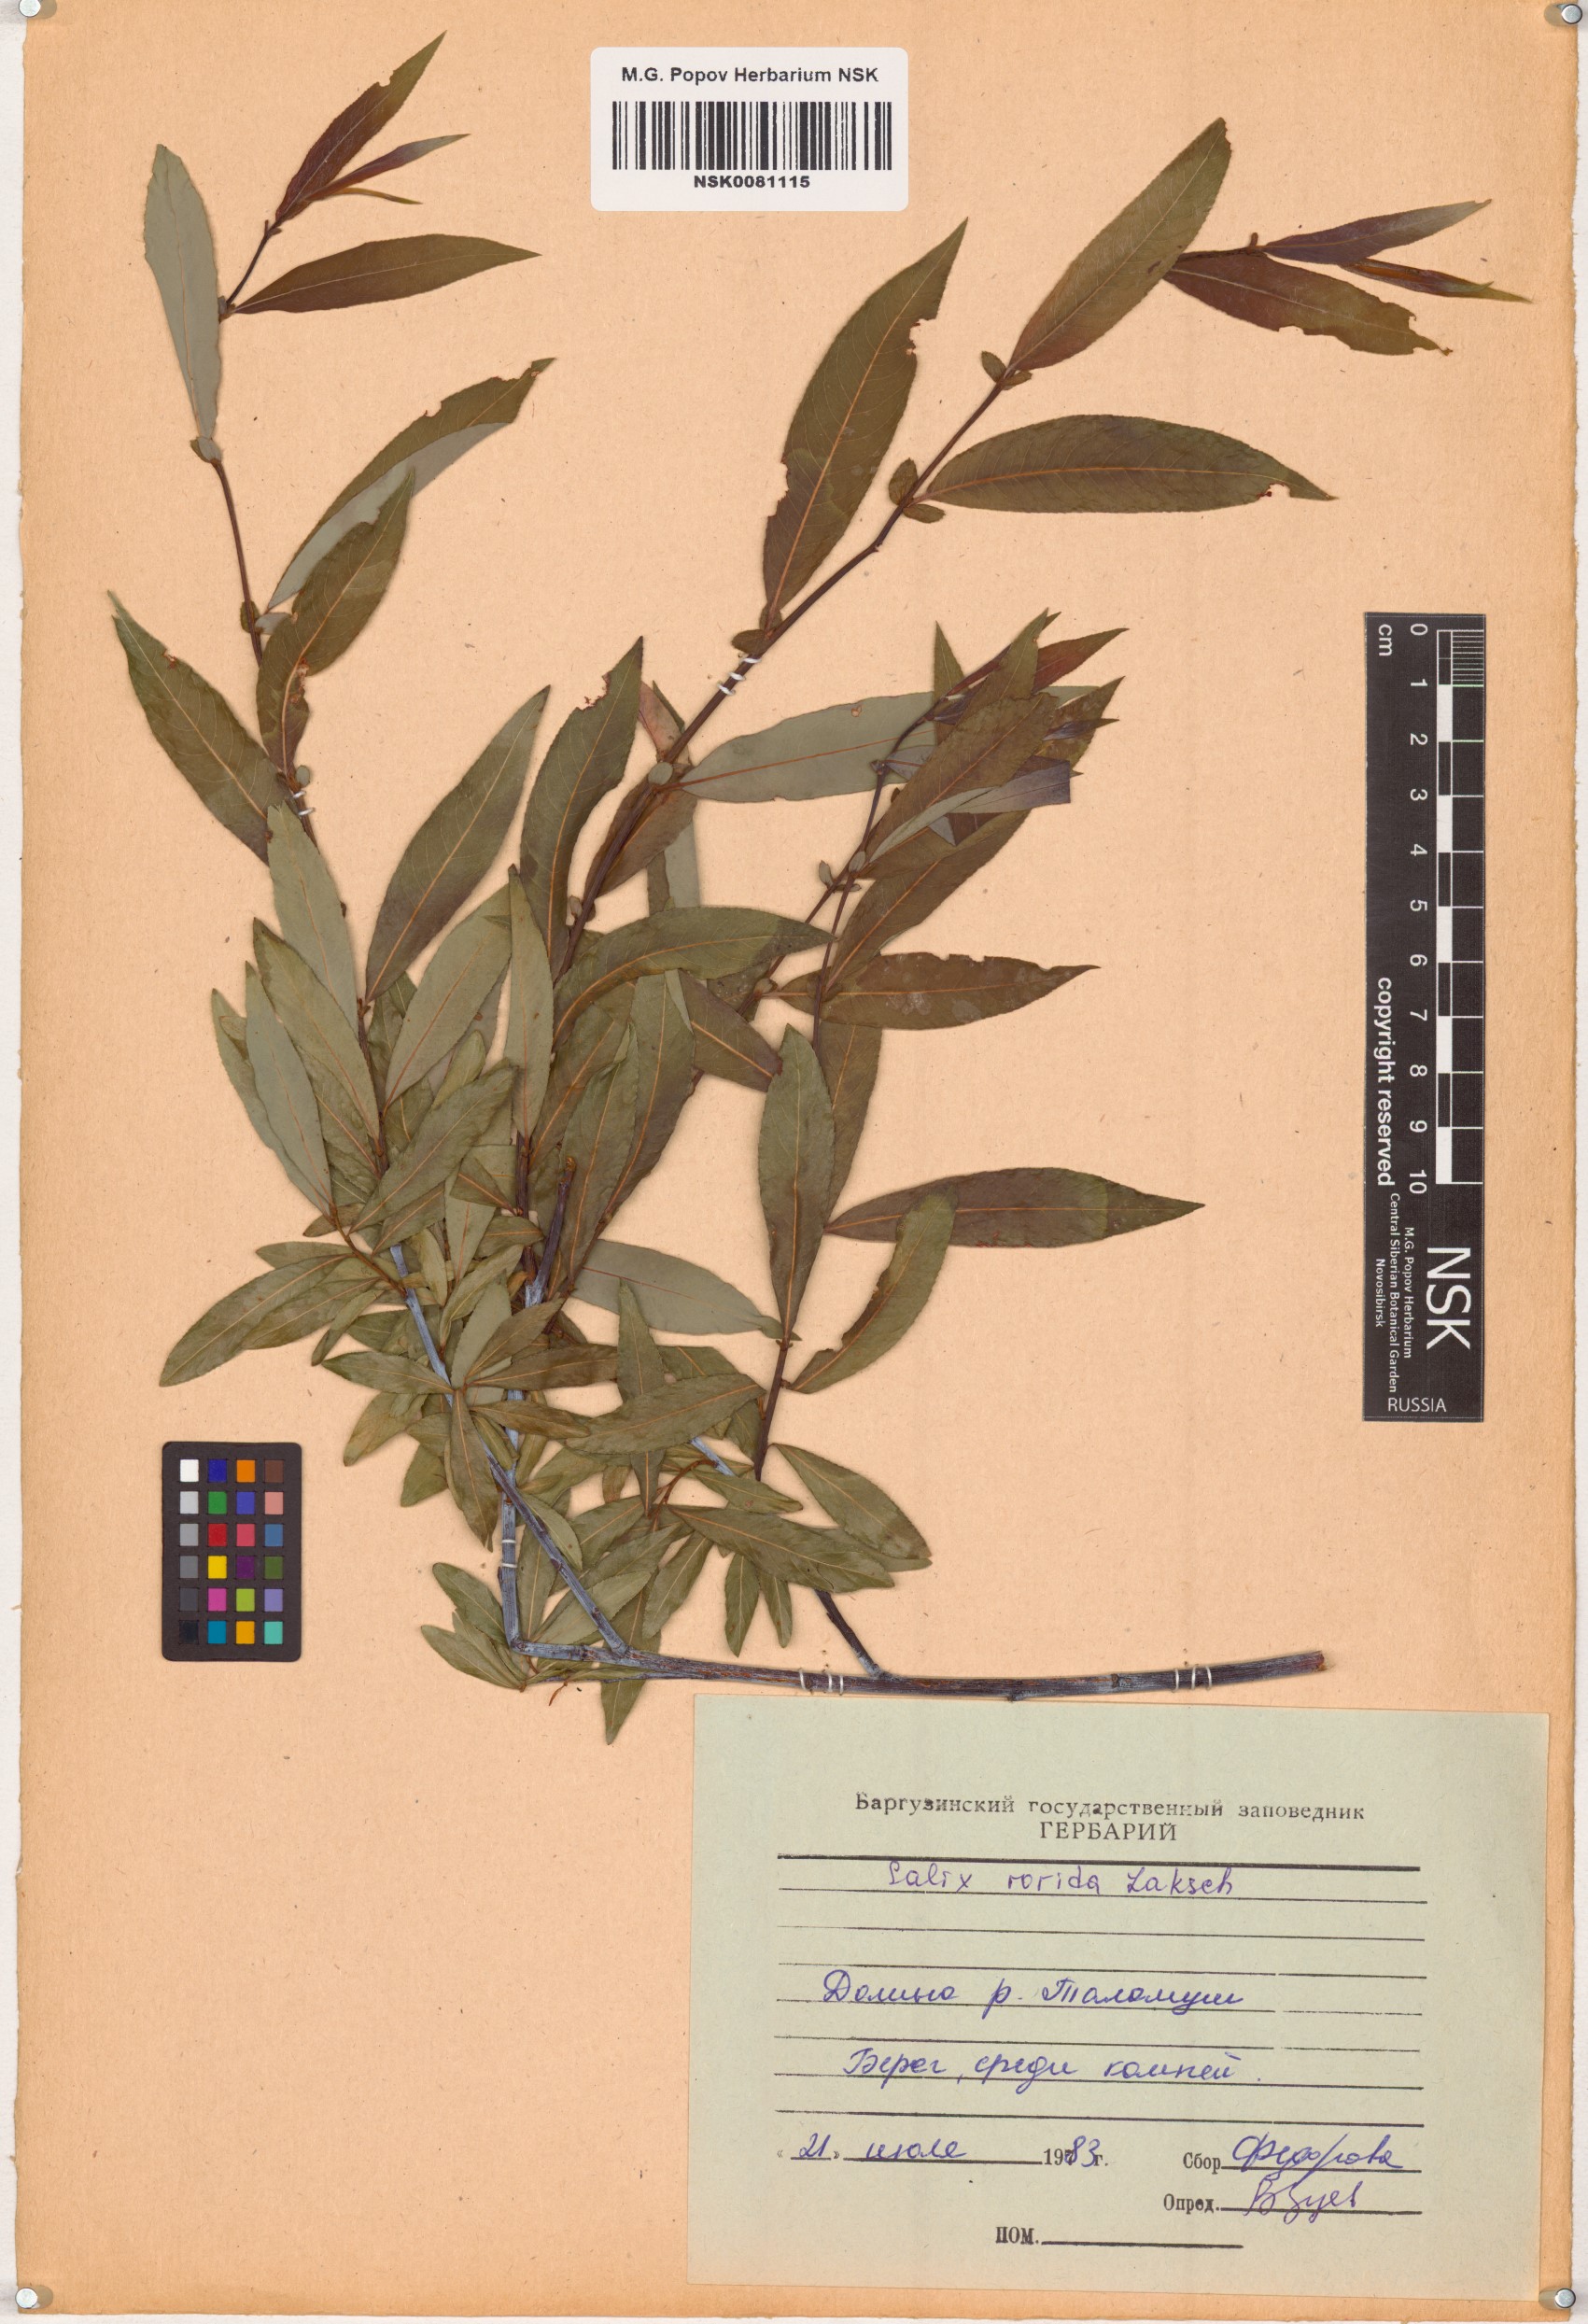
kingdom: Plantae
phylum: Tracheophyta
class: Magnoliopsida
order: Malpighiales
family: Salicaceae
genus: Salix
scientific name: Salix rorida
